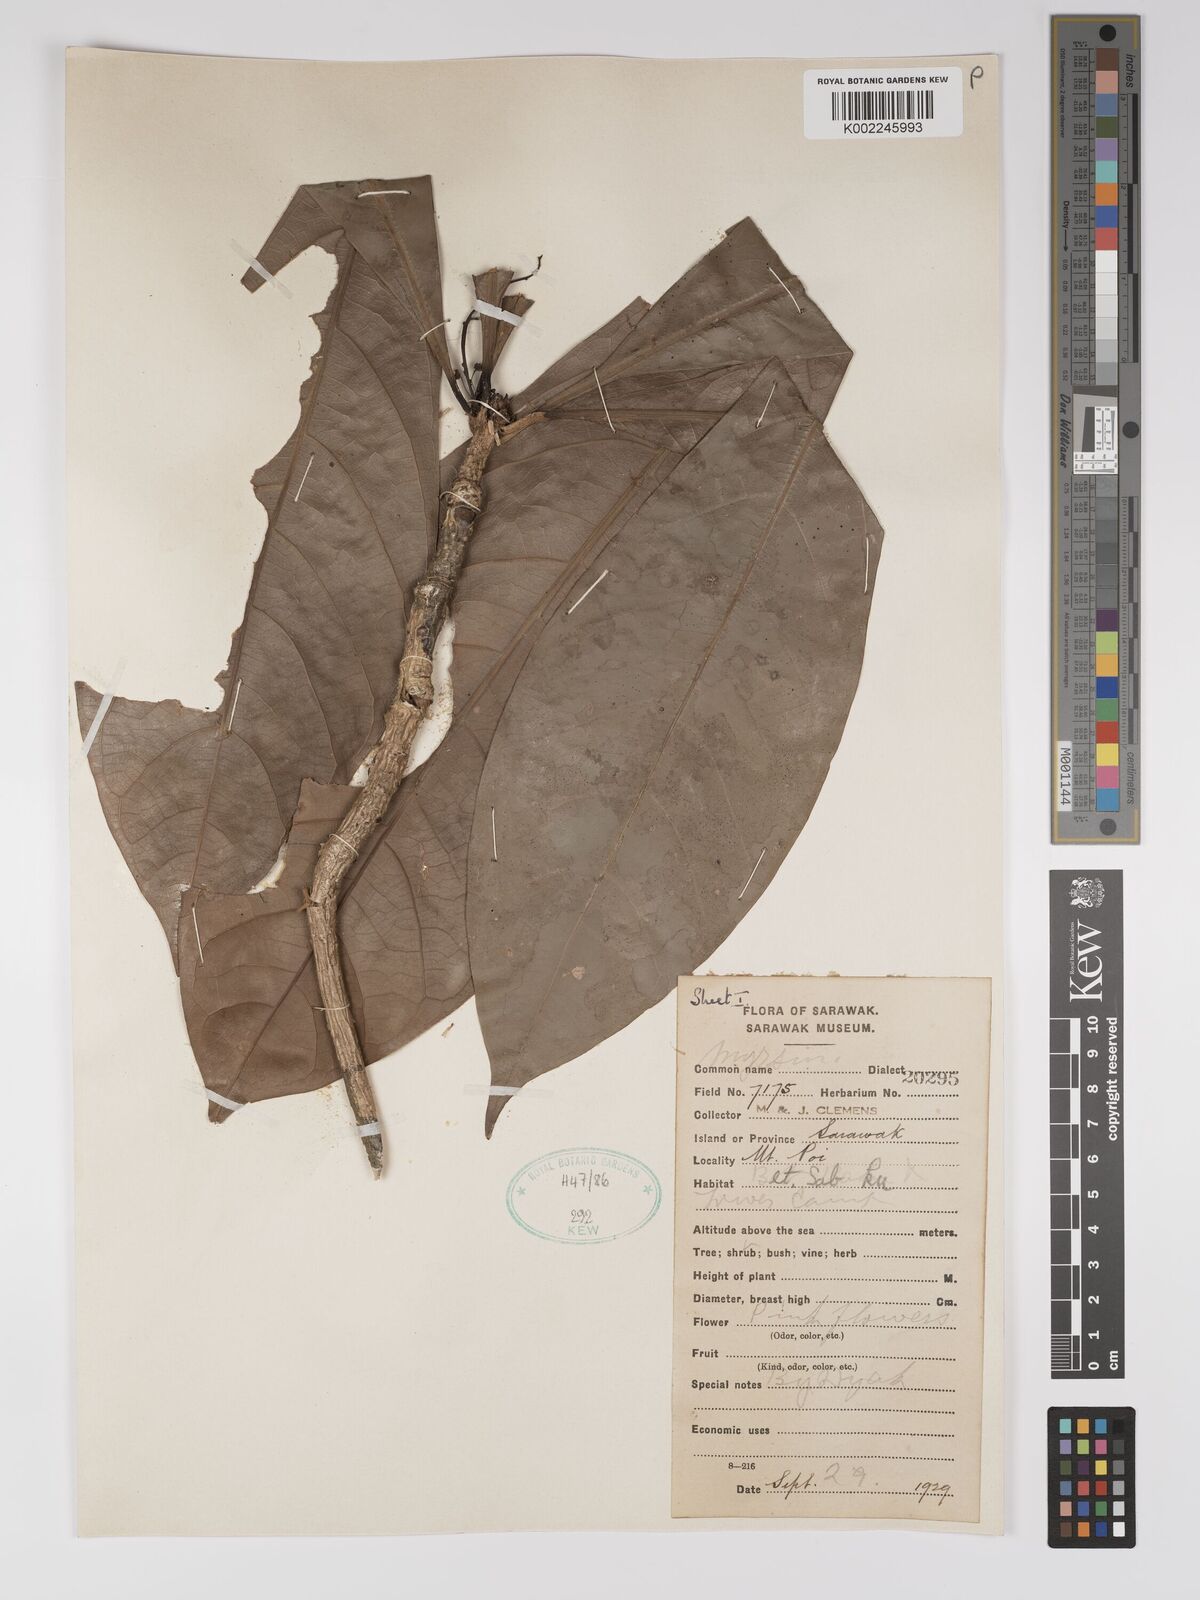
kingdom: Plantae
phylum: Tracheophyta
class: Magnoliopsida
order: Malpighiales
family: Euphorbiaceae
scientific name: Euphorbiaceae
